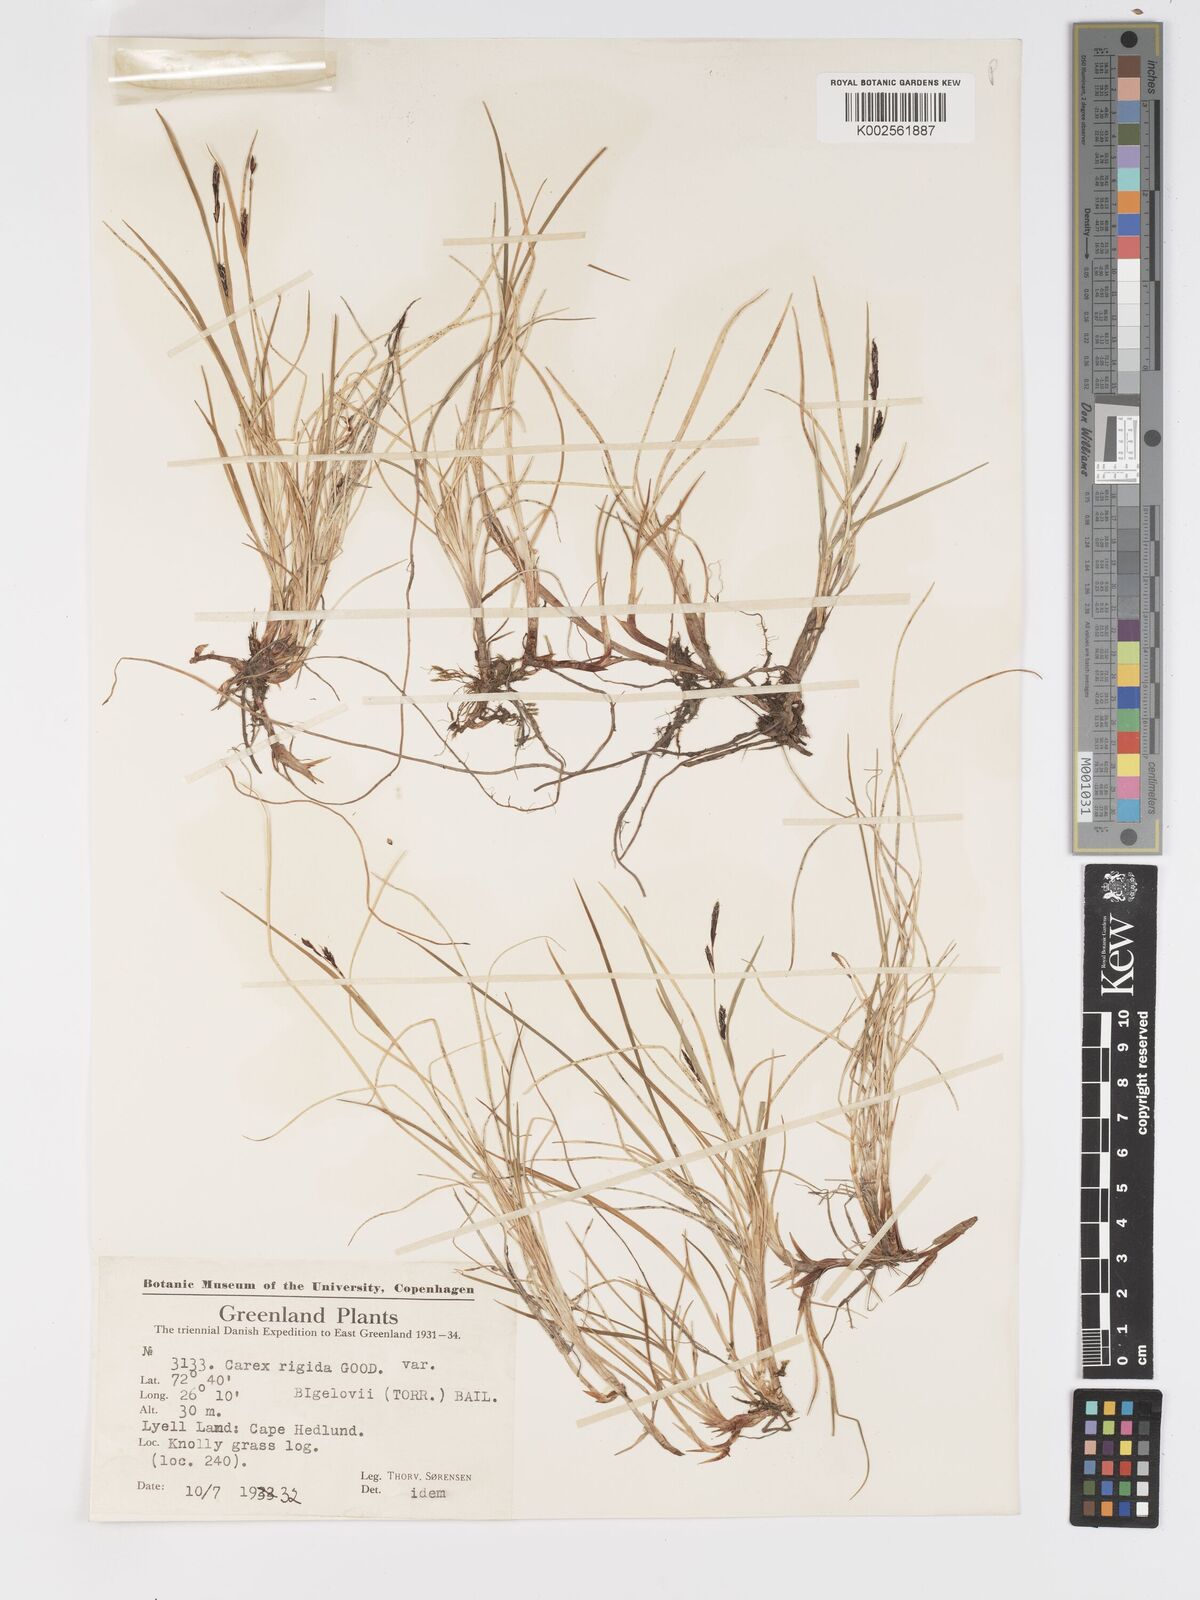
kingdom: Plantae
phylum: Tracheophyta
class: Liliopsida
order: Poales
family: Cyperaceae
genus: Carex
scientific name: Carex bigelowii
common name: Stiff sedge
